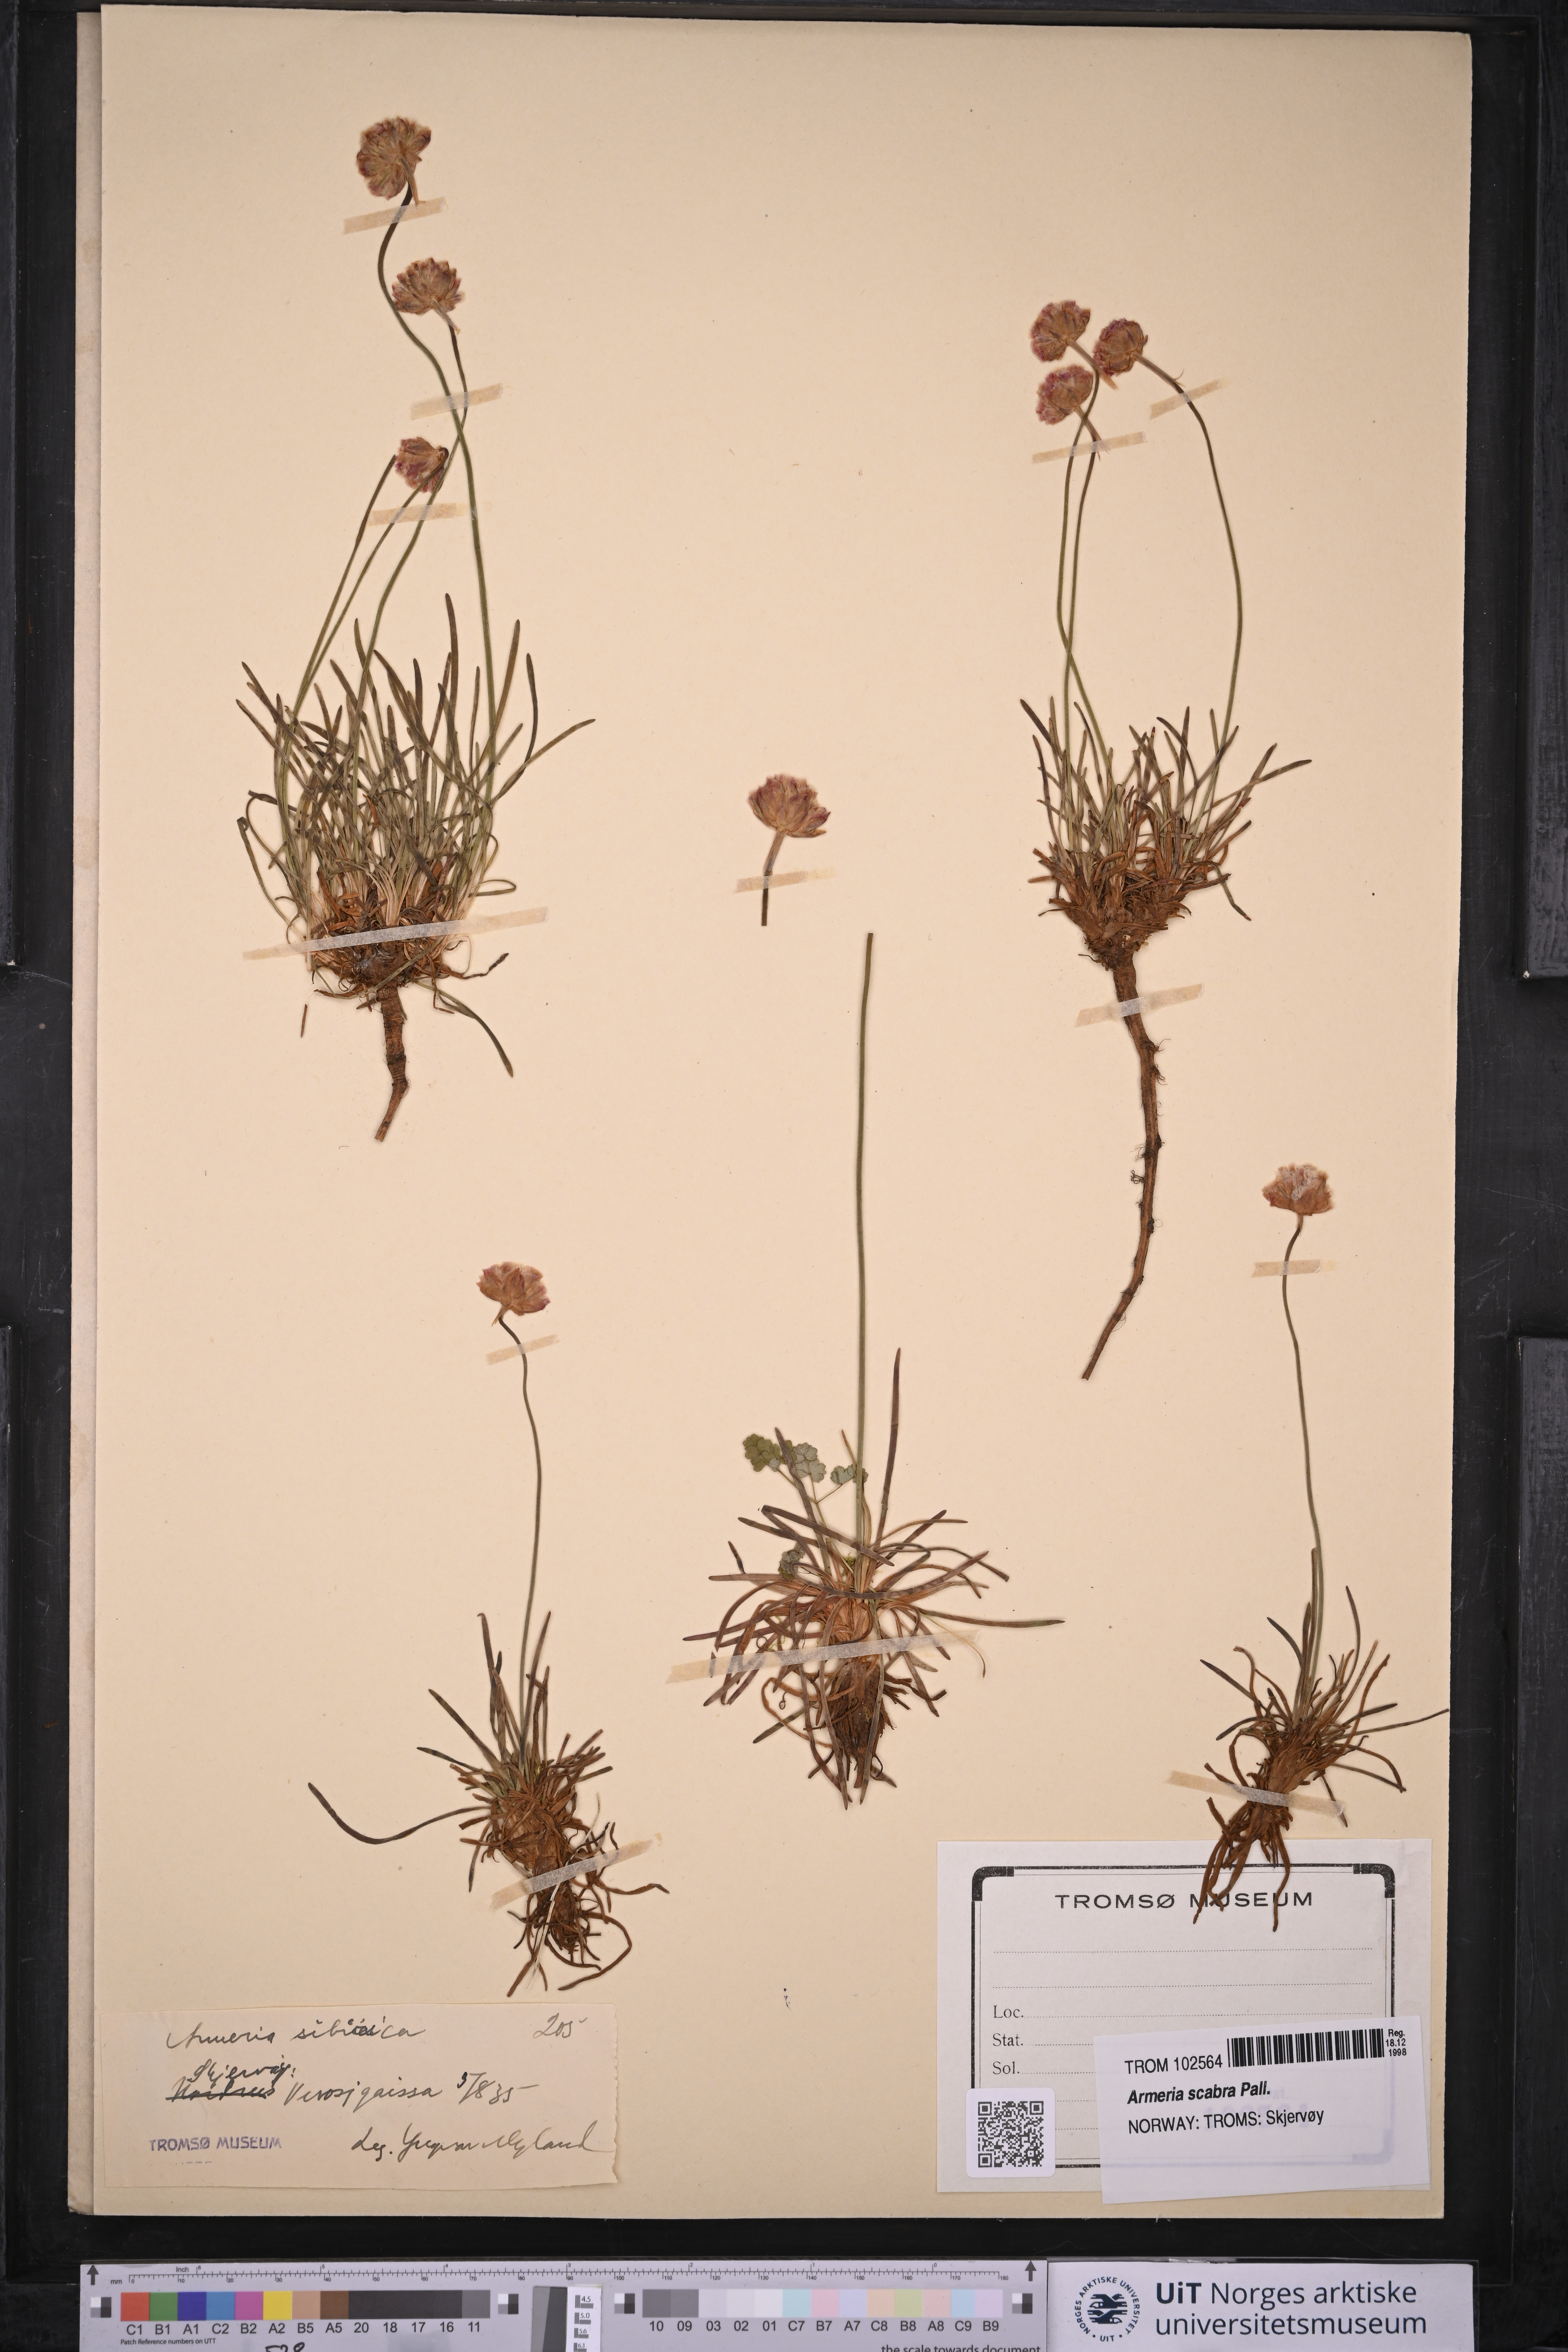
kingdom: Plantae
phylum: Tracheophyta
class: Magnoliopsida
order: Caryophyllales
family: Plumbaginaceae
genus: Armeria
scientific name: Armeria maritima
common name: Thrift
